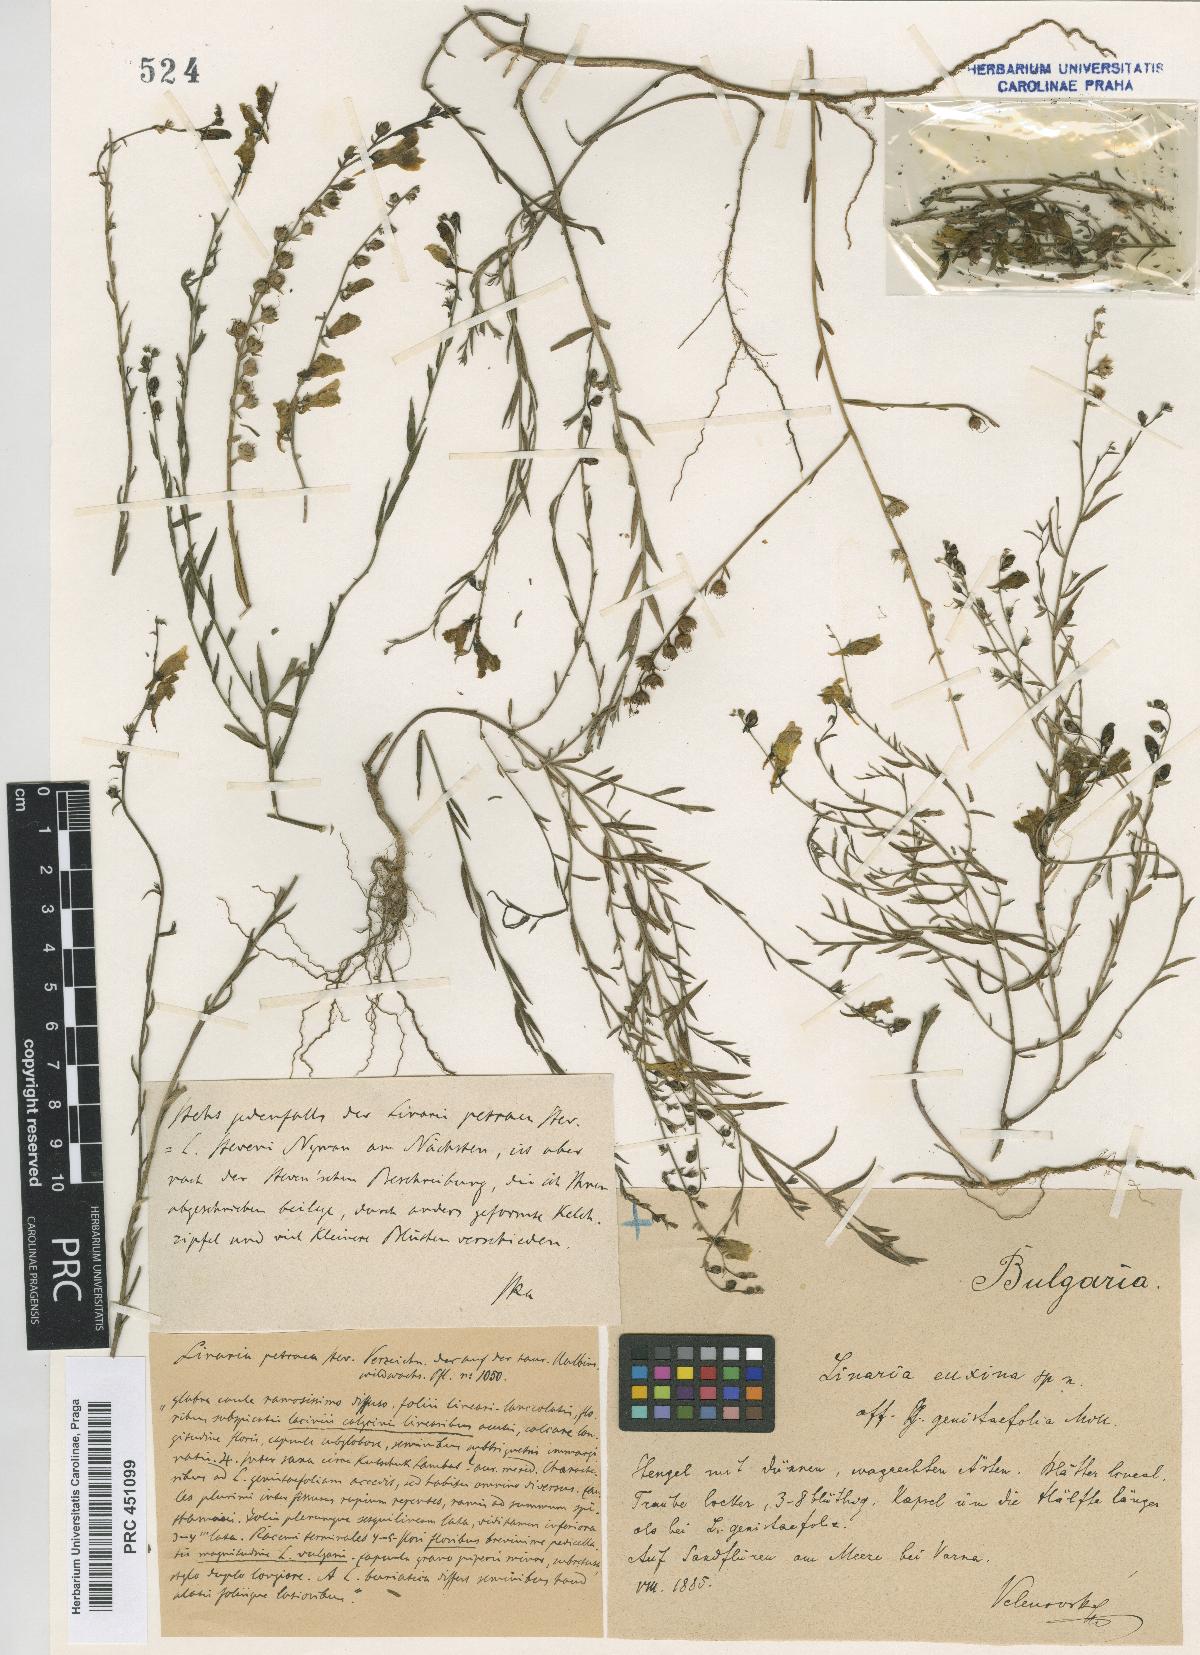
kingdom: Plantae
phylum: Tracheophyta
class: Magnoliopsida
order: Lamiales
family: Plantaginaceae
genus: Linaria
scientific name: Linaria genistifolia
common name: Broomleaf toadflax
